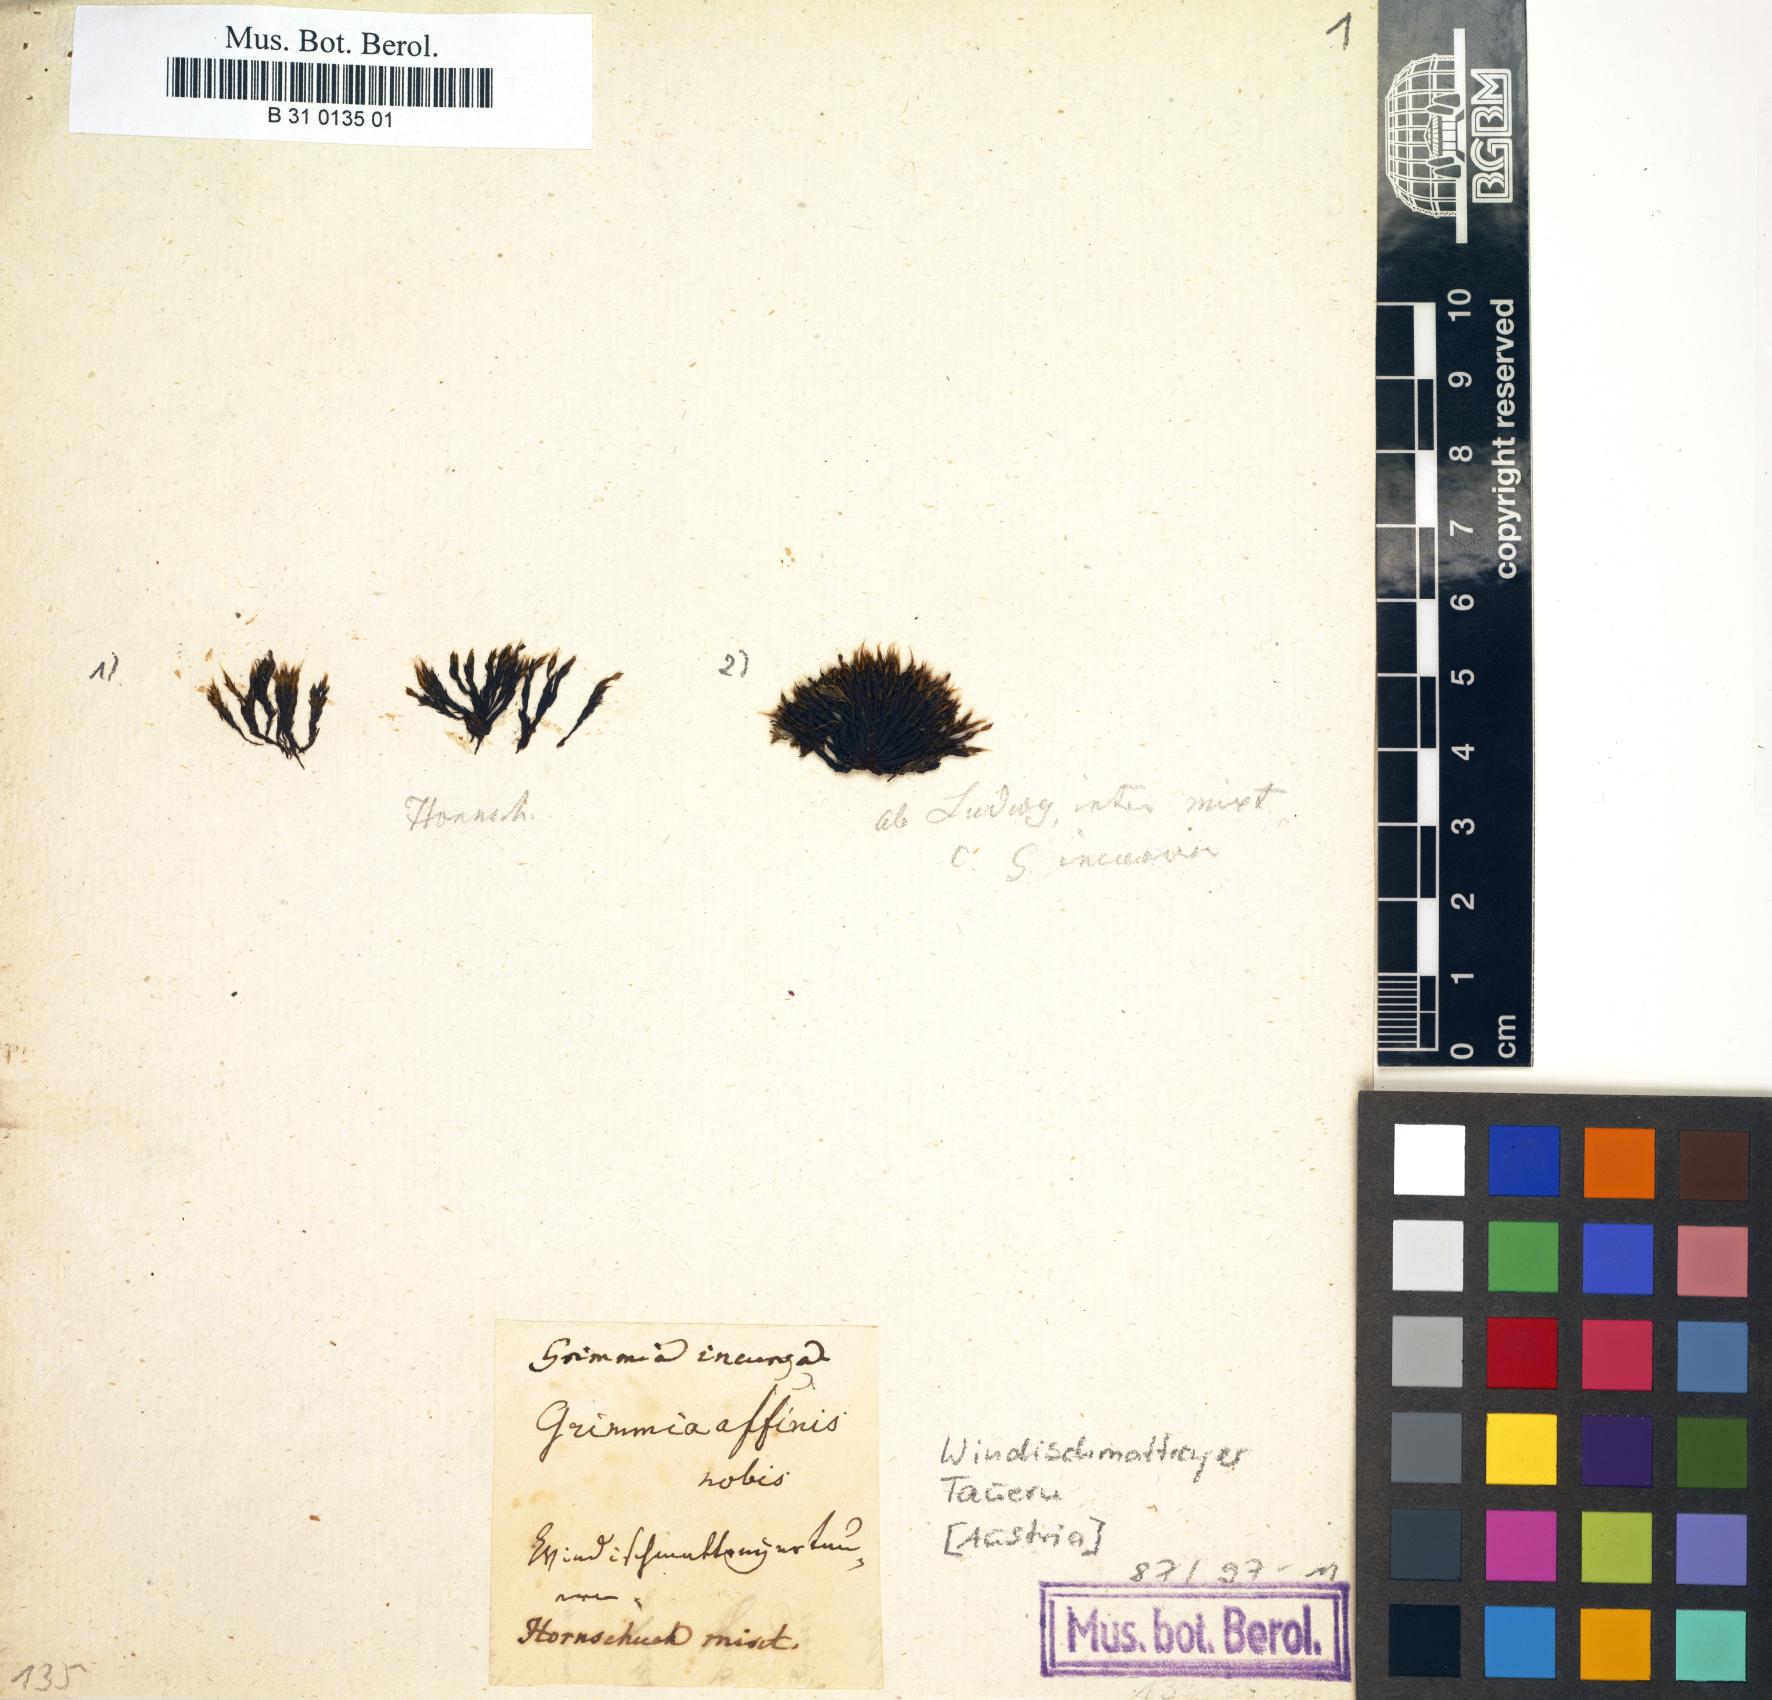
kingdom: Plantae
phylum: Bryophyta
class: Bryopsida
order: Grimmiales
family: Grimmiaceae
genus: Grimmia
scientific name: Grimmia
